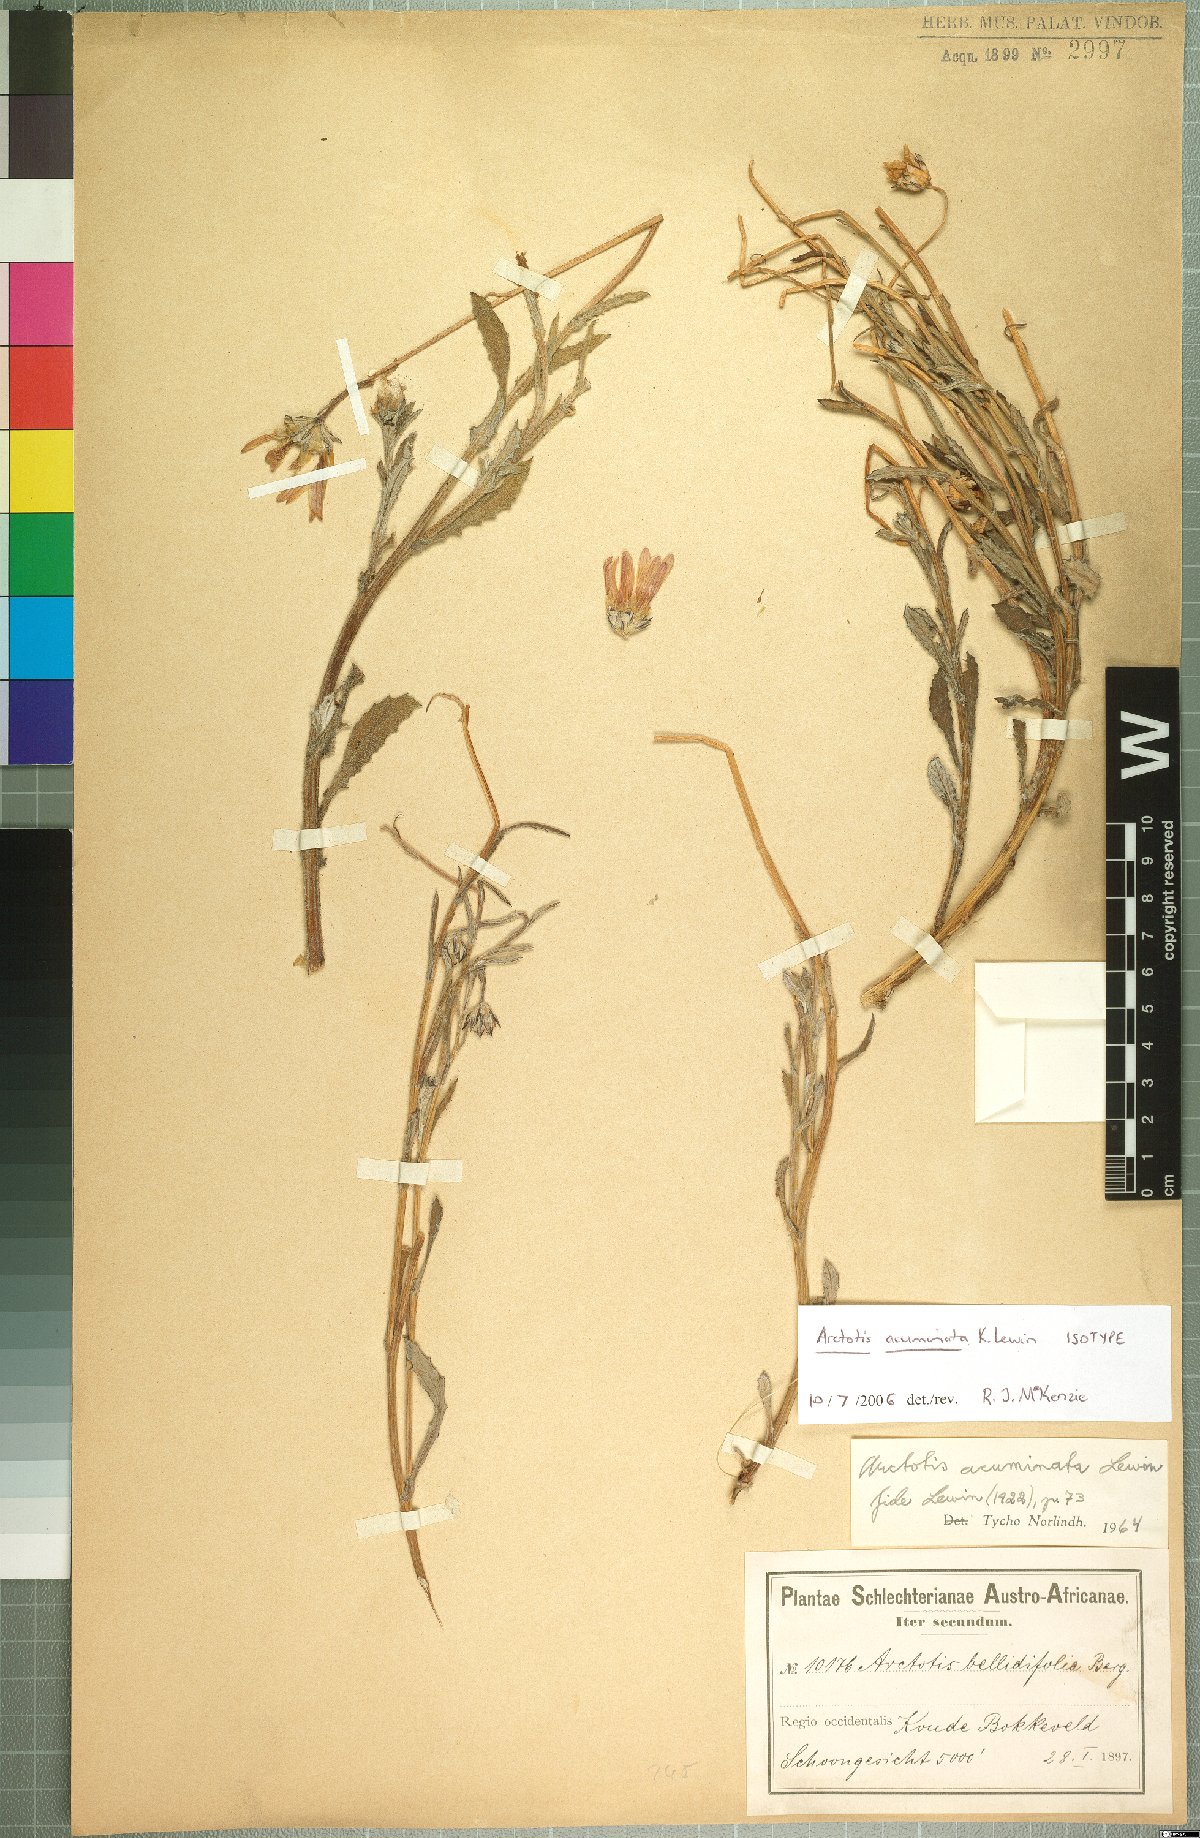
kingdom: Plantae
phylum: Tracheophyta
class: Magnoliopsida
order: Asterales
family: Asteraceae
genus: Arctotis
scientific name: Arctotis acuminata
